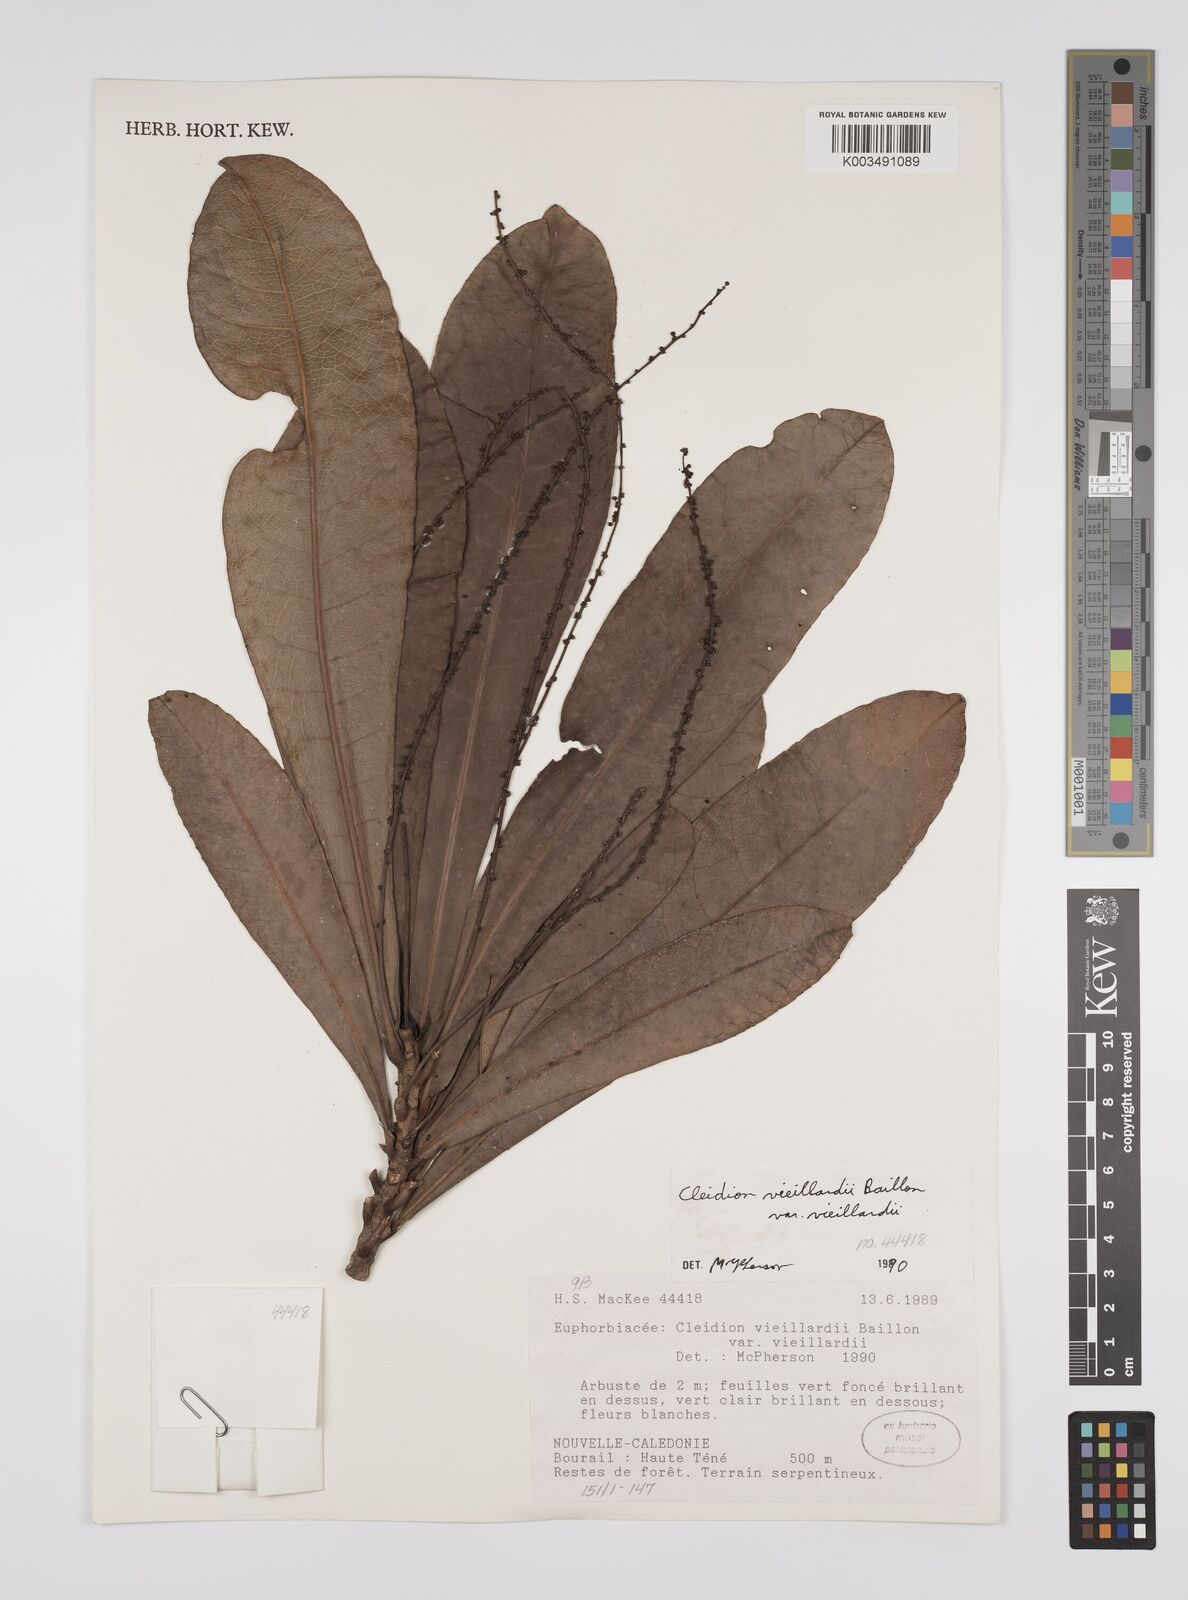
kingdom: Plantae
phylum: Tracheophyta
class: Magnoliopsida
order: Malpighiales
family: Euphorbiaceae
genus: Cleidion
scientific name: Cleidion vieillardii
